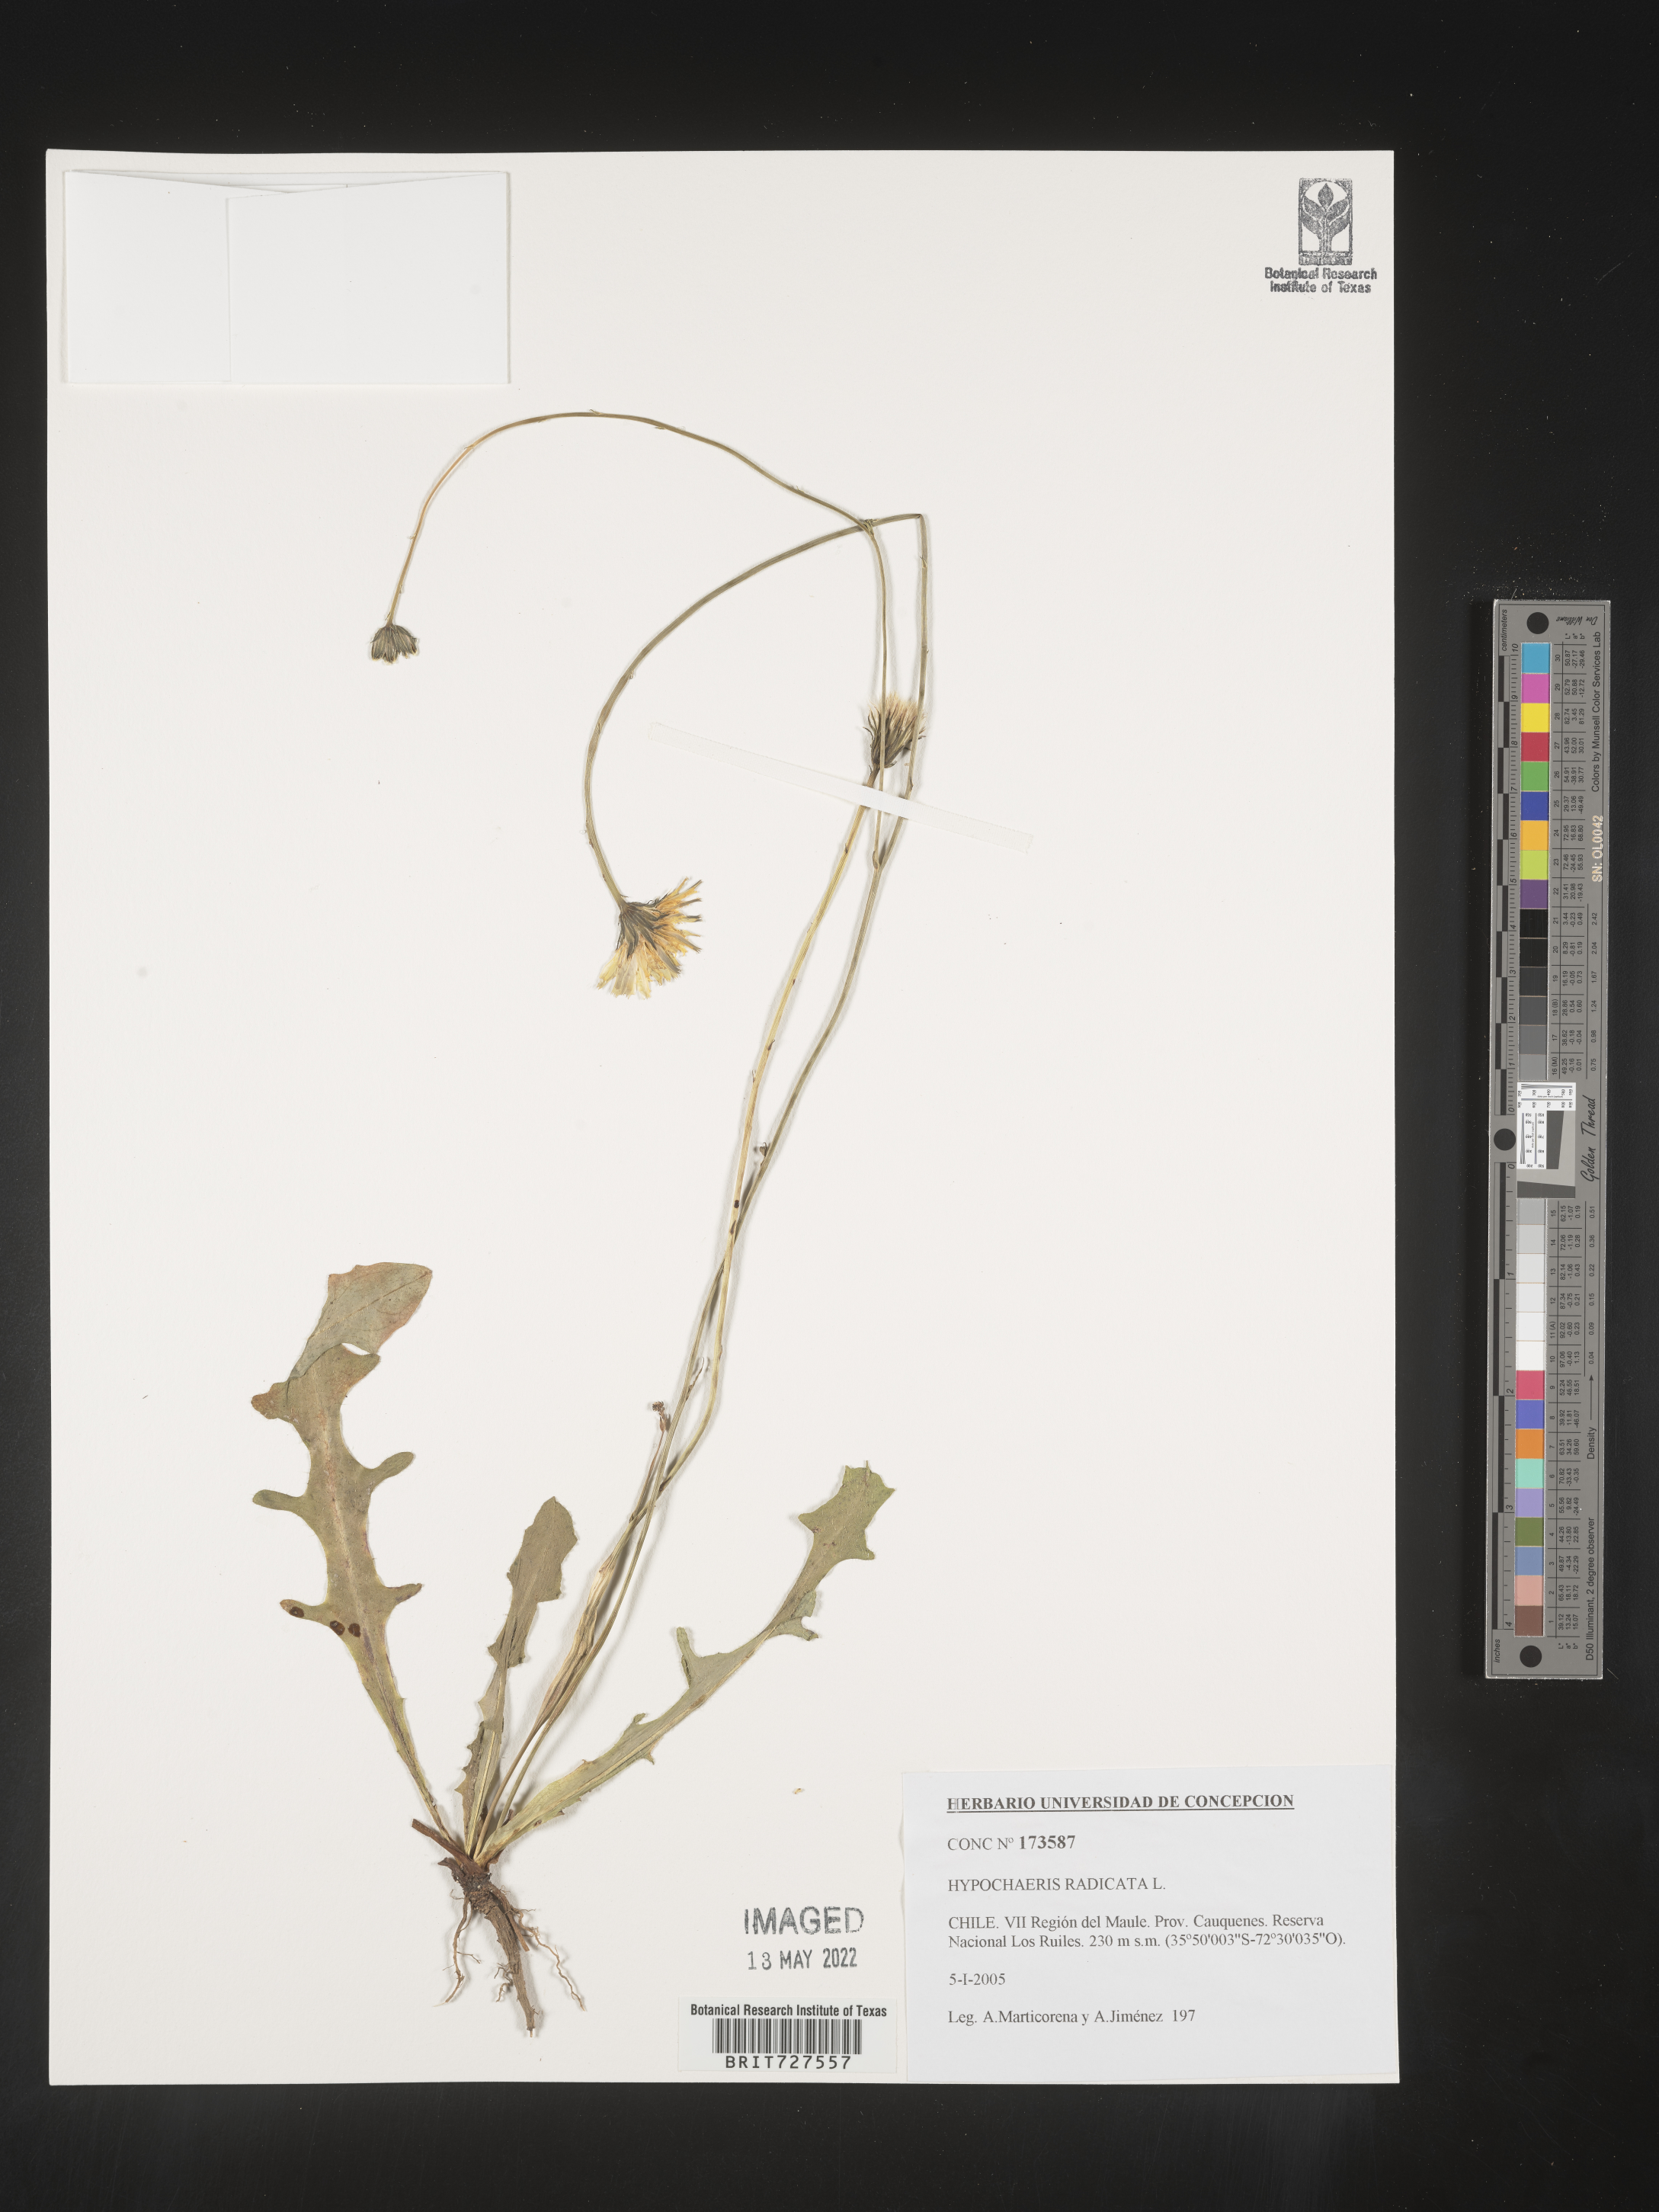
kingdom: Plantae
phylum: Tracheophyta
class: Magnoliopsida
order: Asterales
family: Asteraceae
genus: Hypochaeris
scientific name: Hypochaeris
